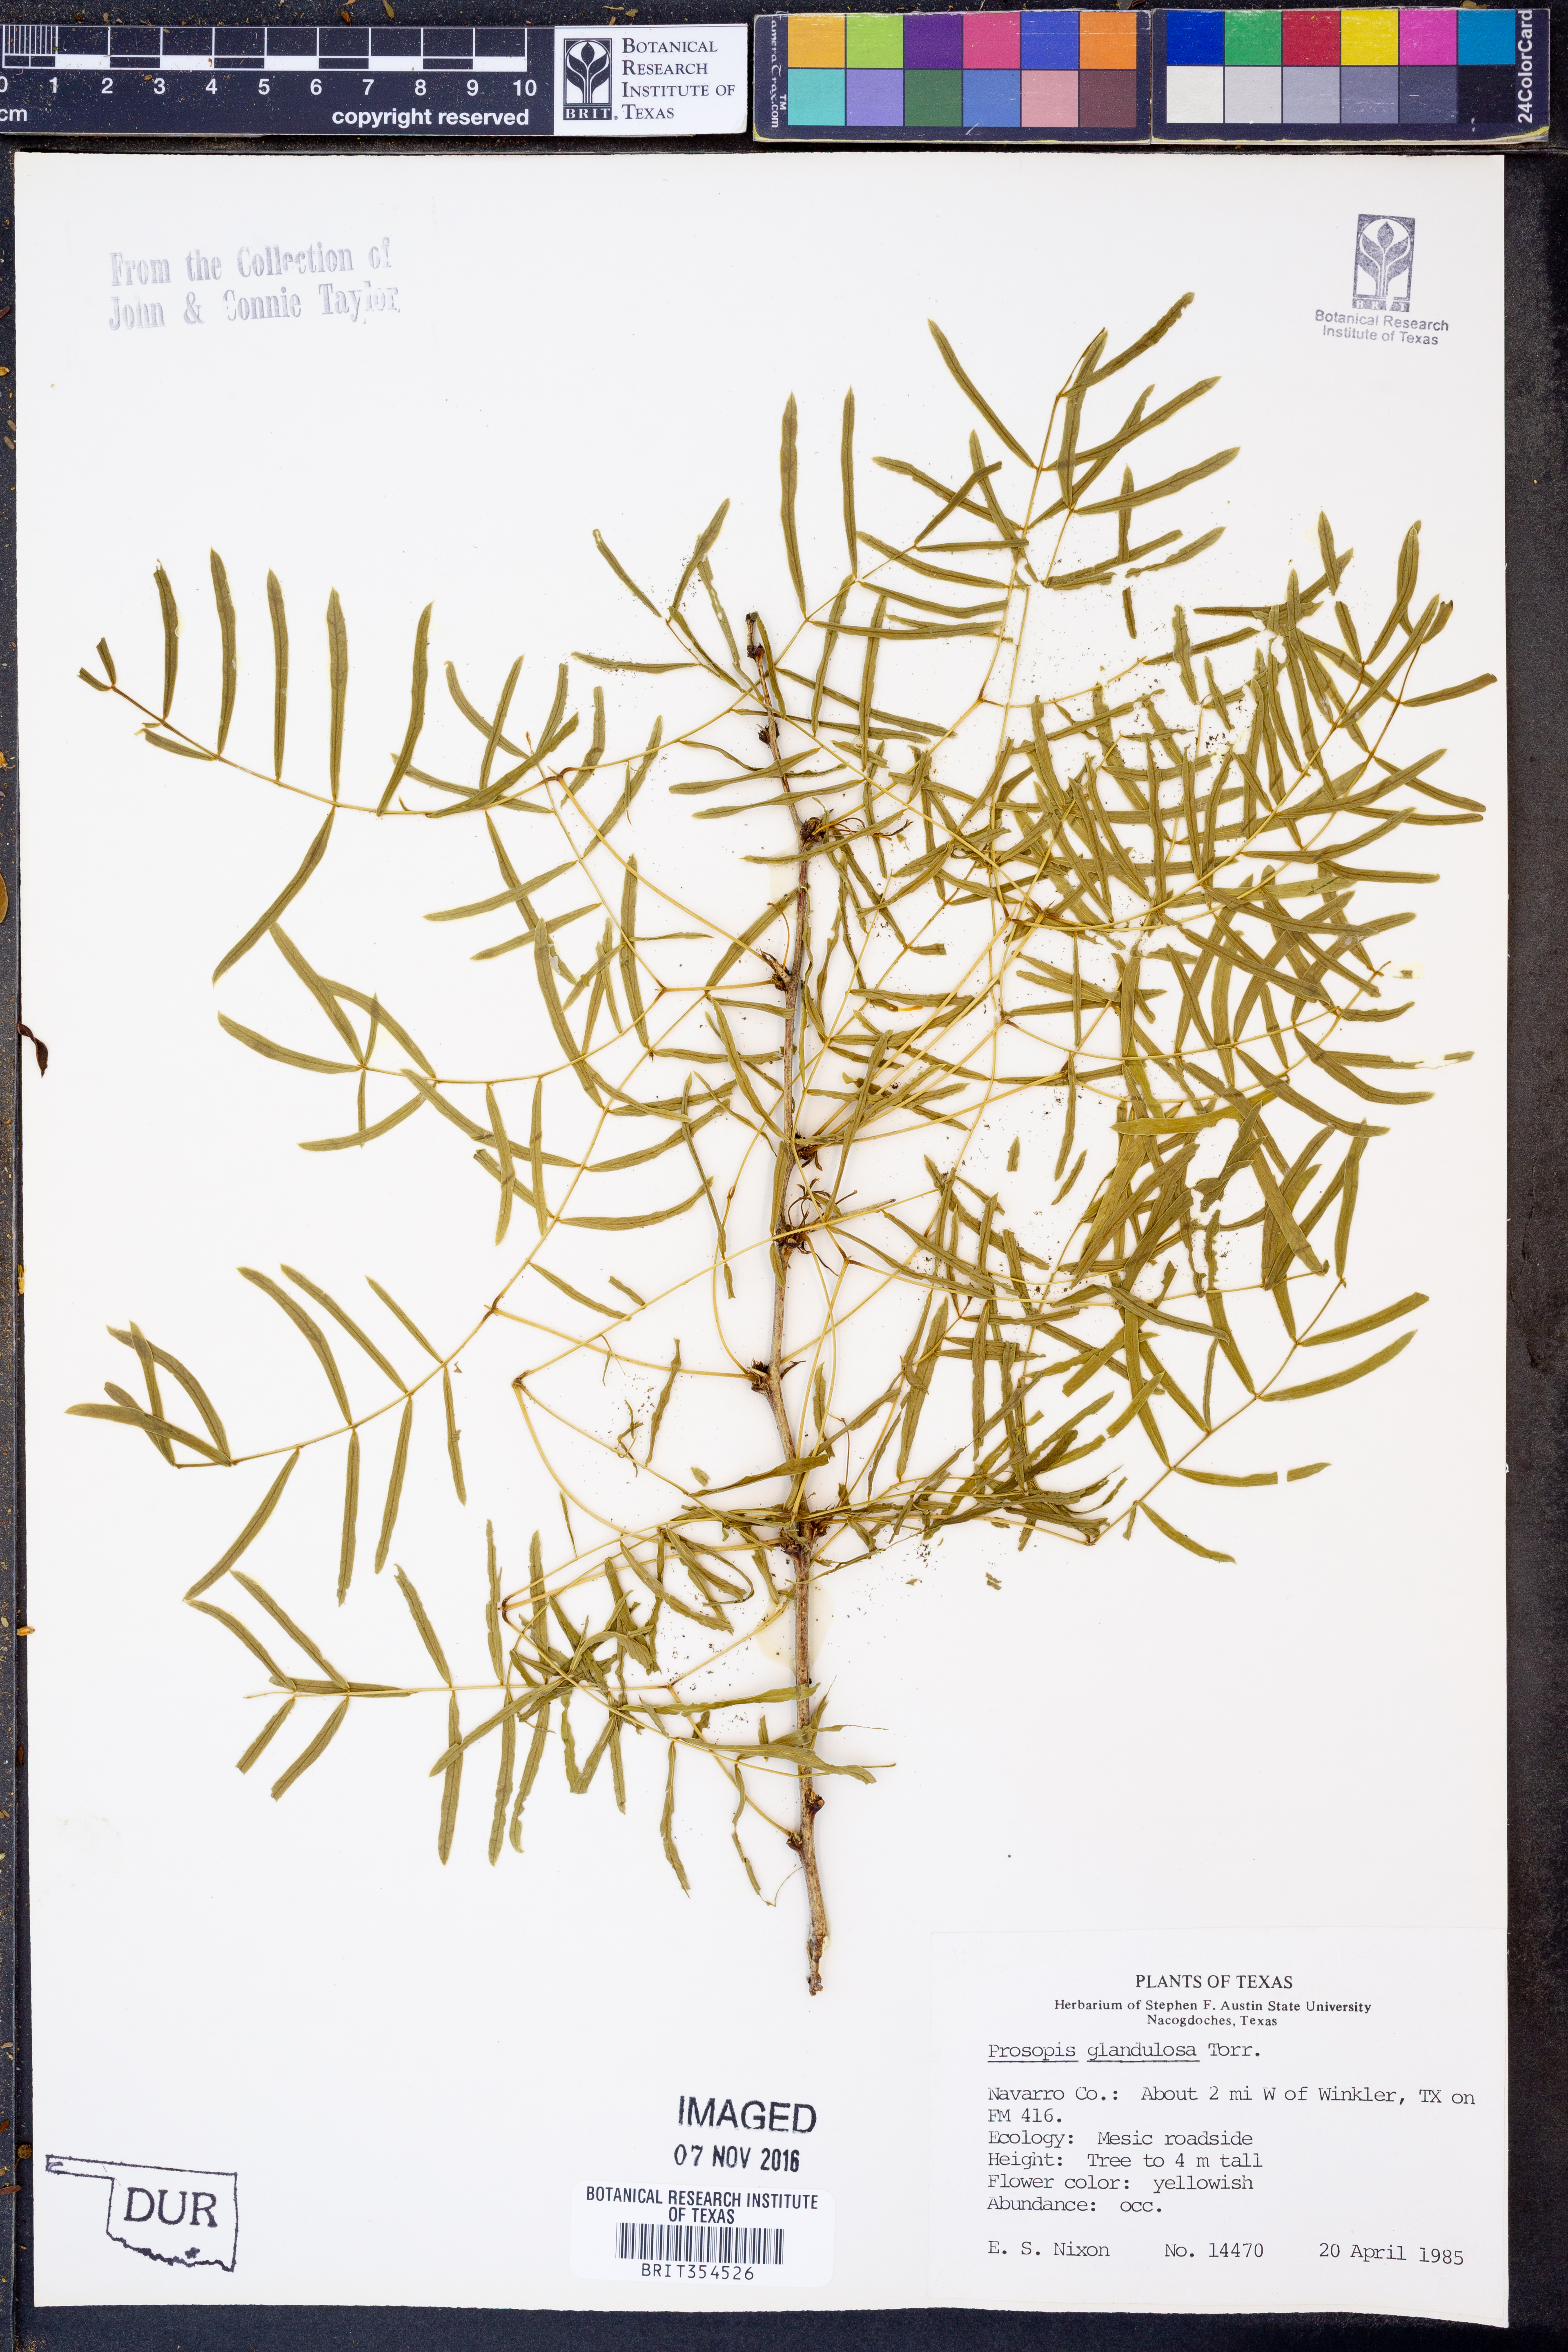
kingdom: Plantae
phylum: Tracheophyta
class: Magnoliopsida
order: Fabales
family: Fabaceae
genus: Prosopis
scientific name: Prosopis glandulosa
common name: Honey mesquite
